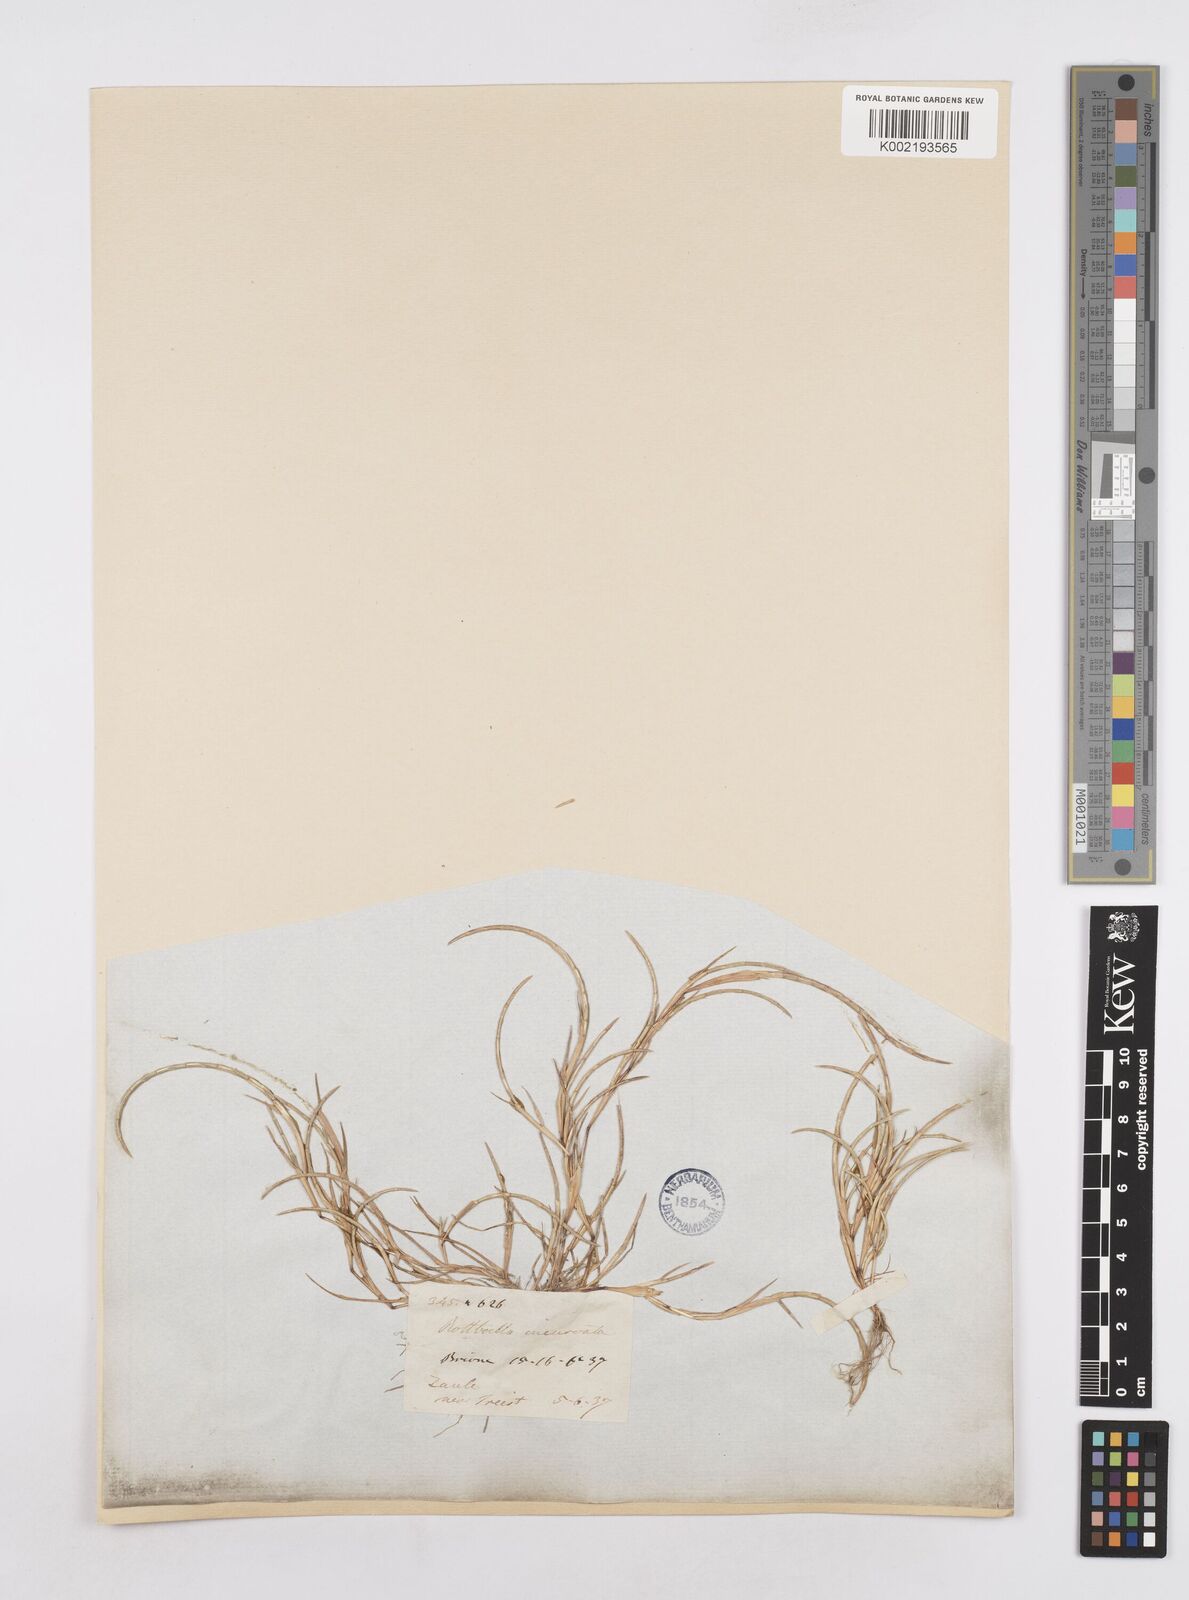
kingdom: Plantae
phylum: Tracheophyta
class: Liliopsida
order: Poales
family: Poaceae
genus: Parapholis
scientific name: Parapholis incurva
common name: Curved sicklegrass
